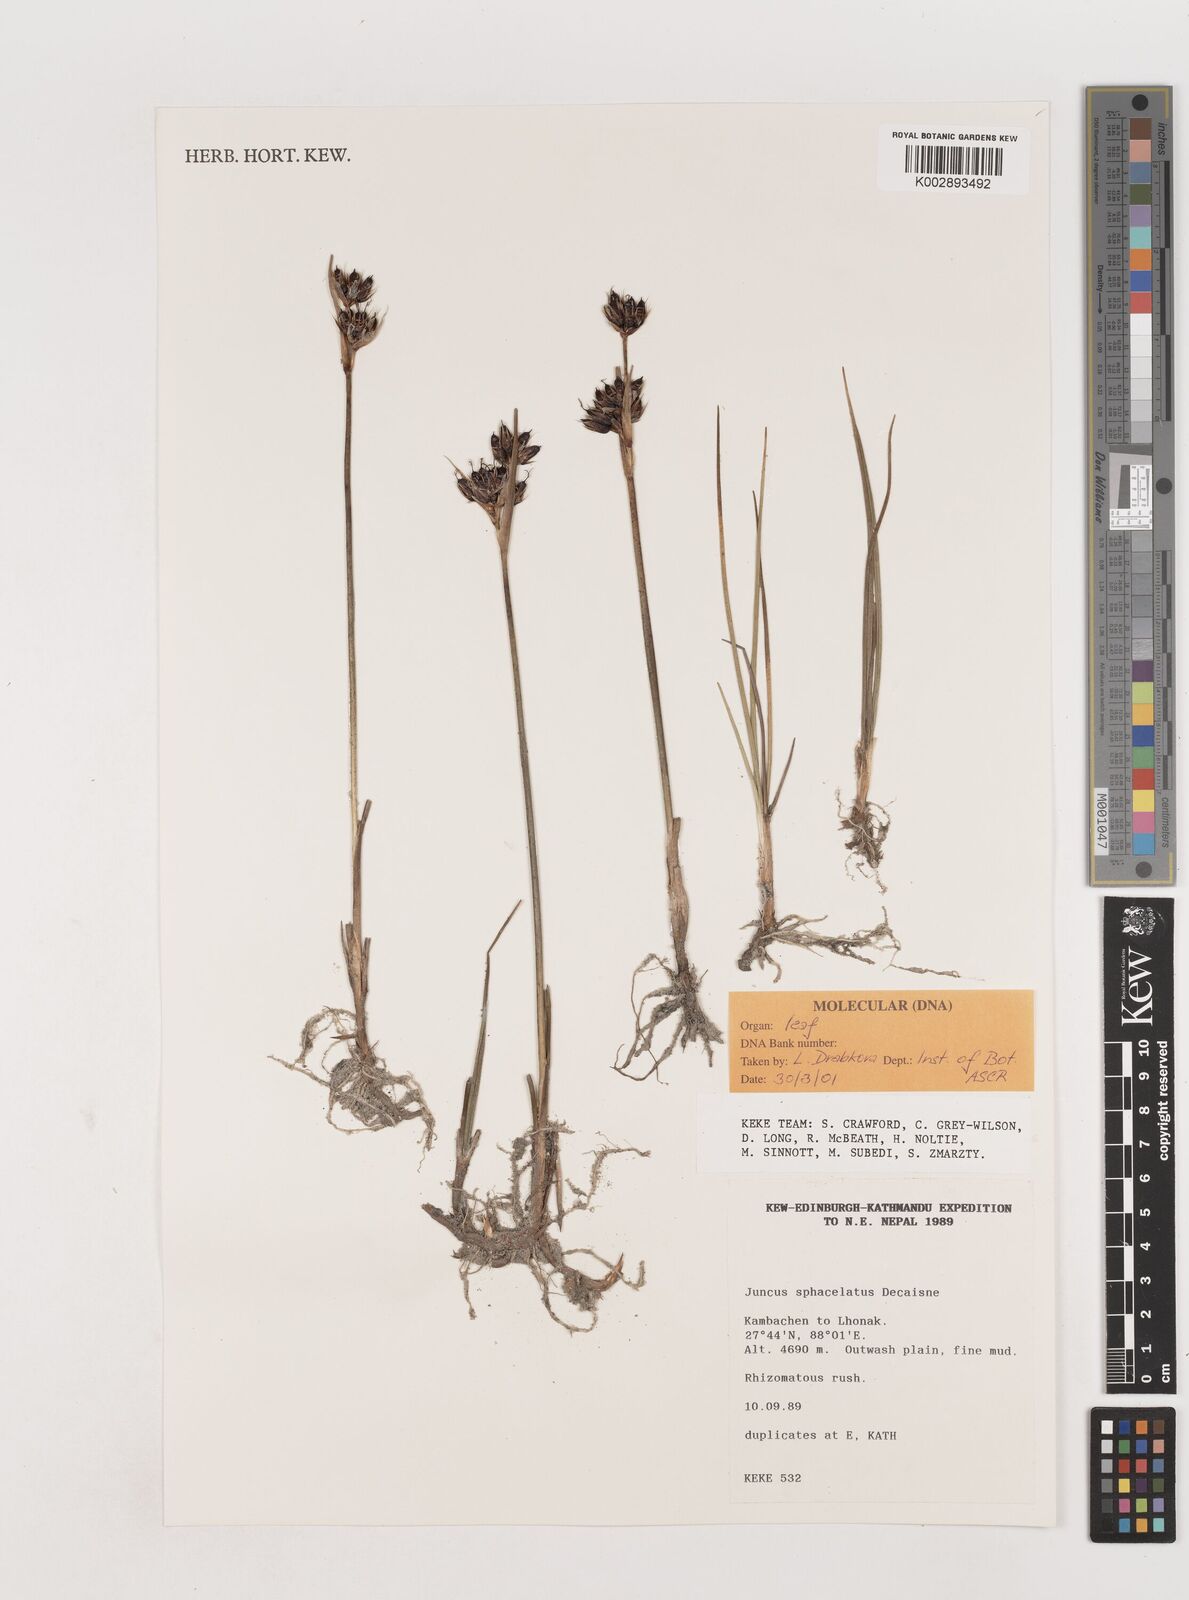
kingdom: Plantae
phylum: Tracheophyta
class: Liliopsida
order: Poales
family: Juncaceae
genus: Juncus
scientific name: Juncus sphacelatus
